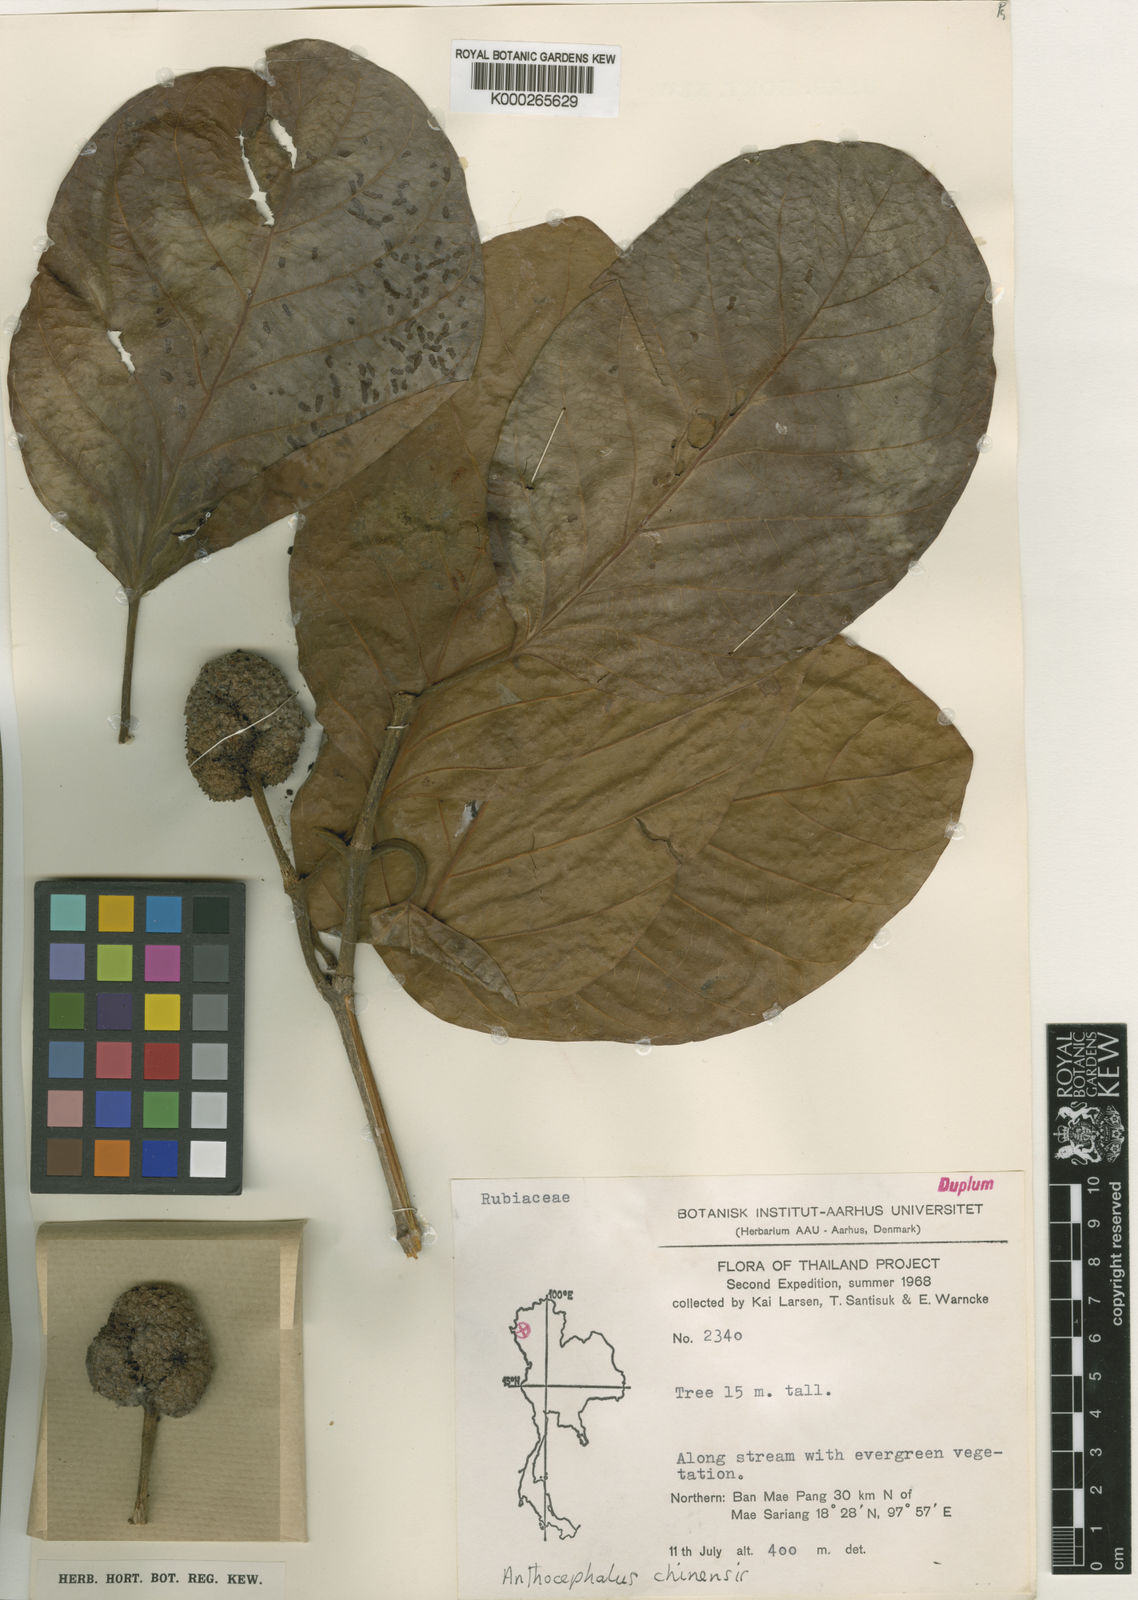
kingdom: Plantae
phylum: Tracheophyta
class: Magnoliopsida
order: Gentianales
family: Rubiaceae
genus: Neolamarckia
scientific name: Neolamarckia cadamba
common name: Leichhardt-pine
